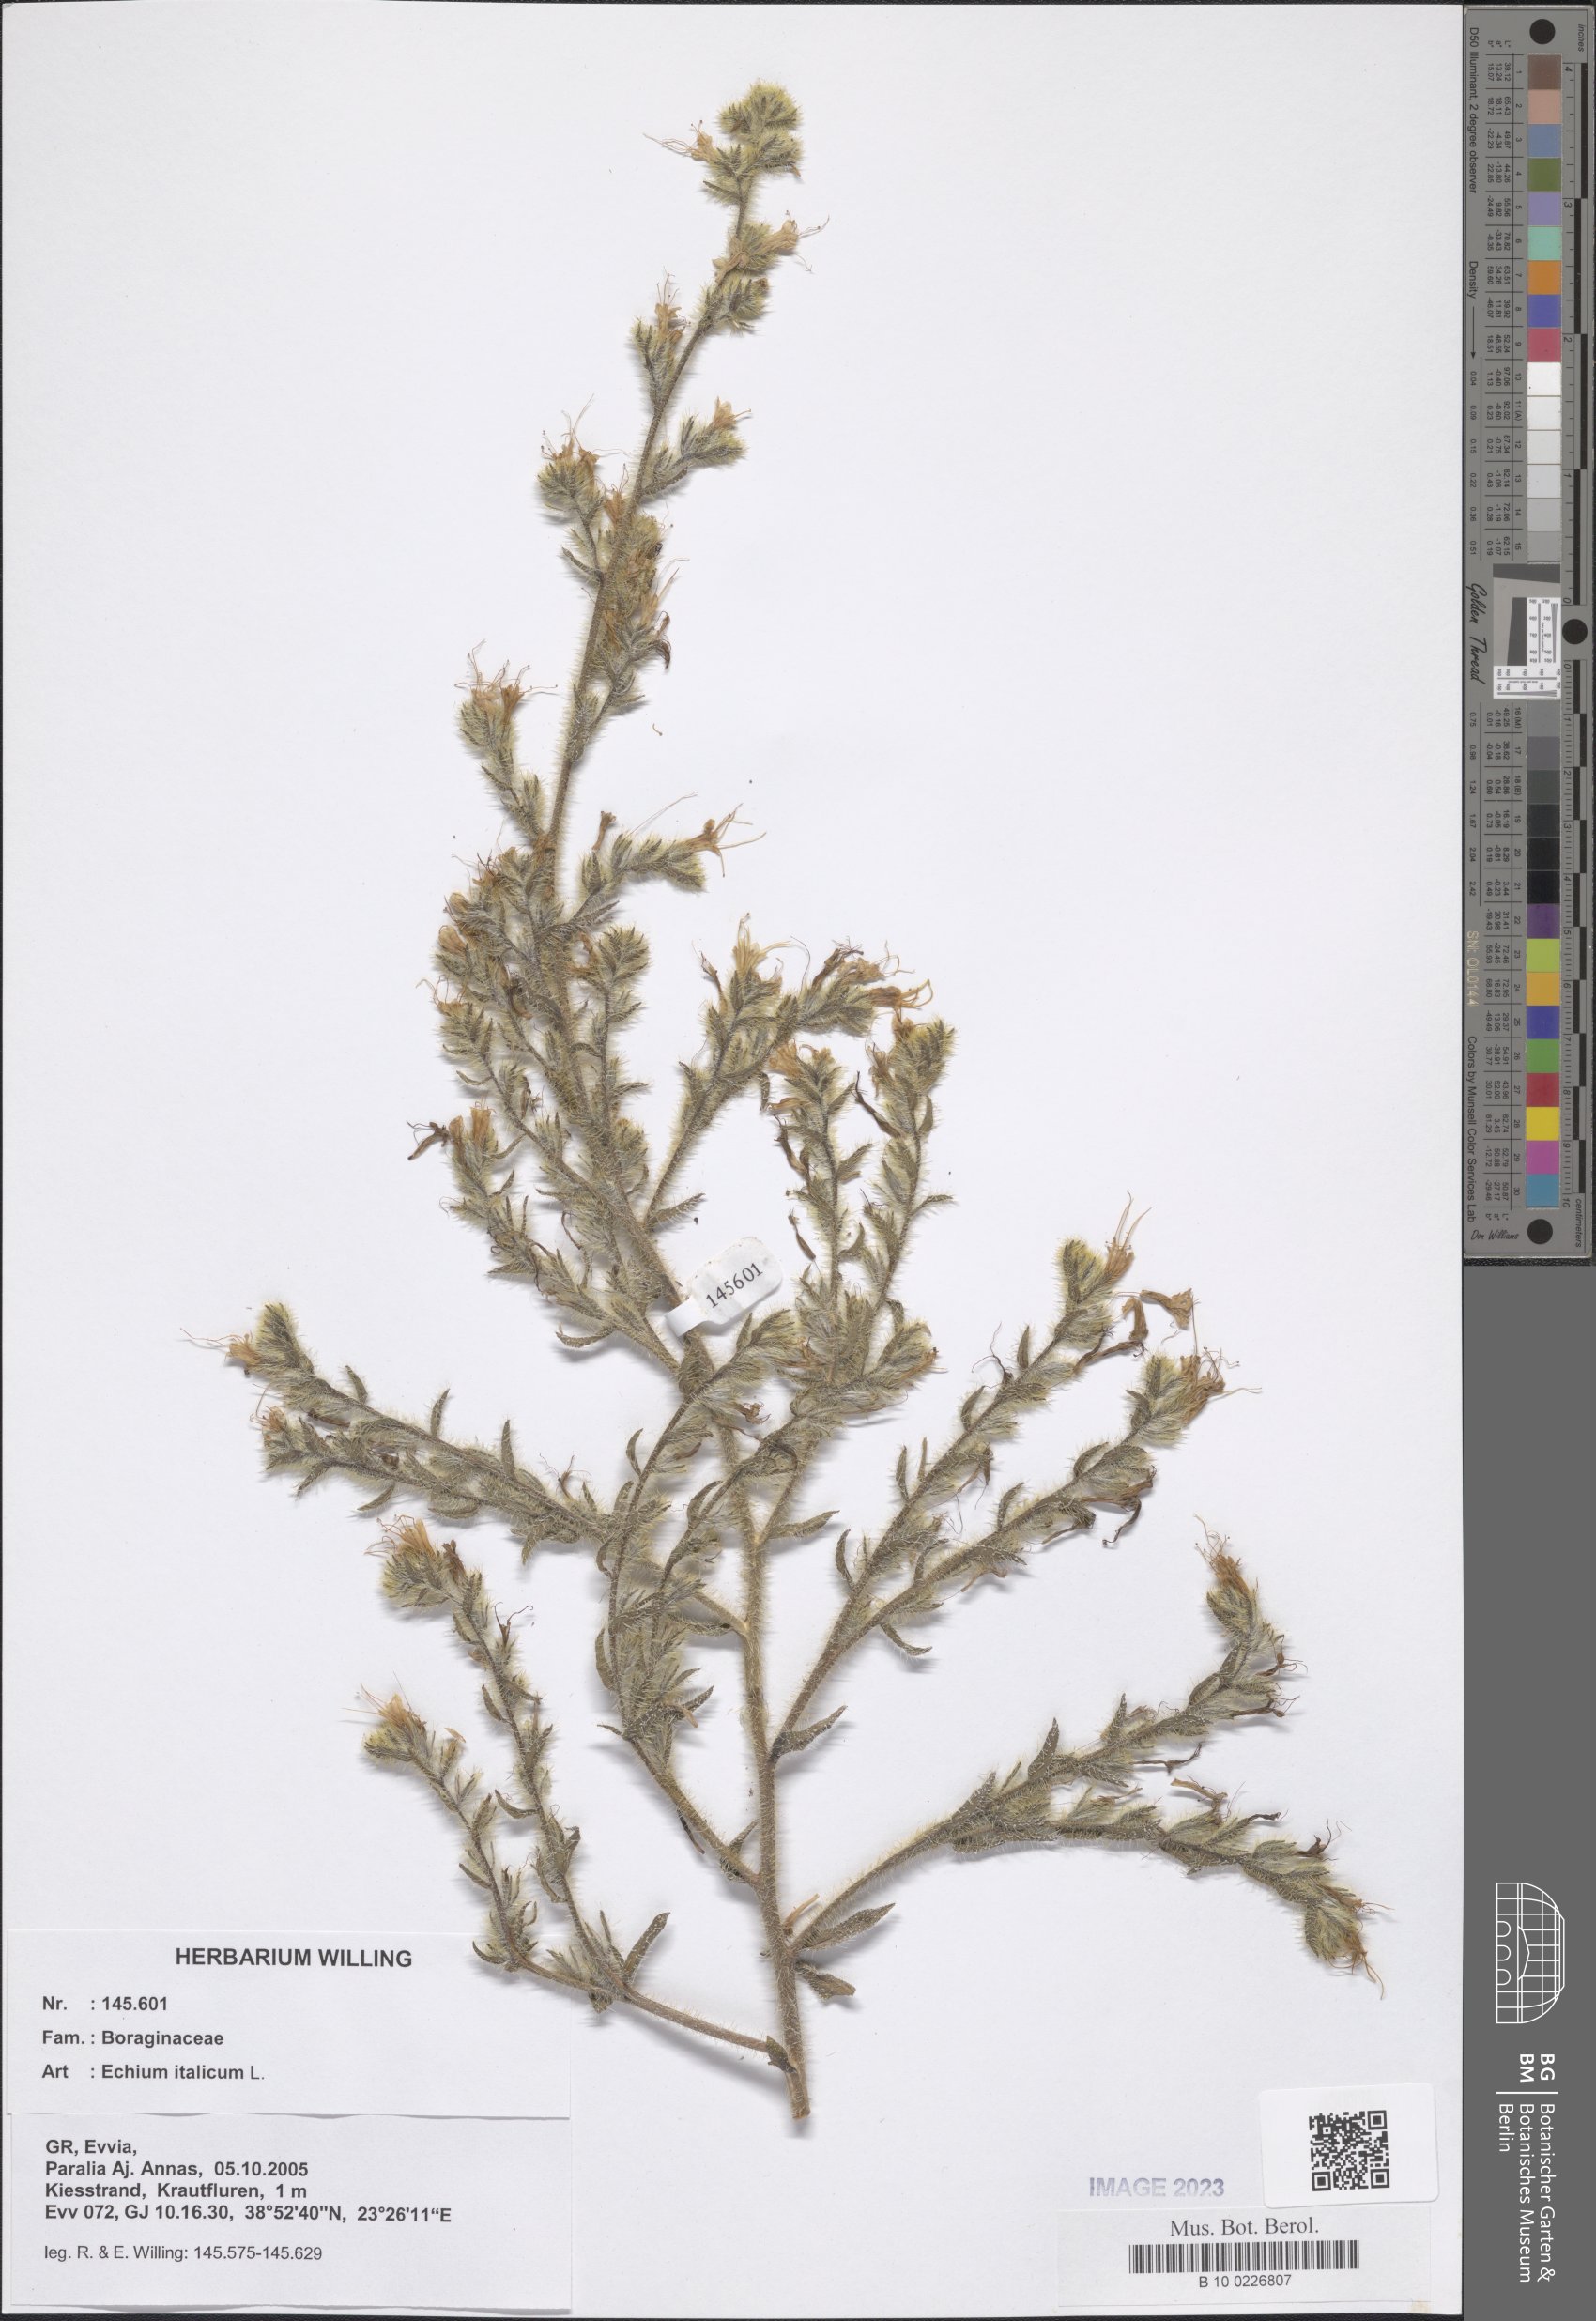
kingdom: Plantae
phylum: Tracheophyta
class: Magnoliopsida
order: Boraginales
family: Boraginaceae
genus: Echium
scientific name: Echium italicum
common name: Italian viper's bugloss
